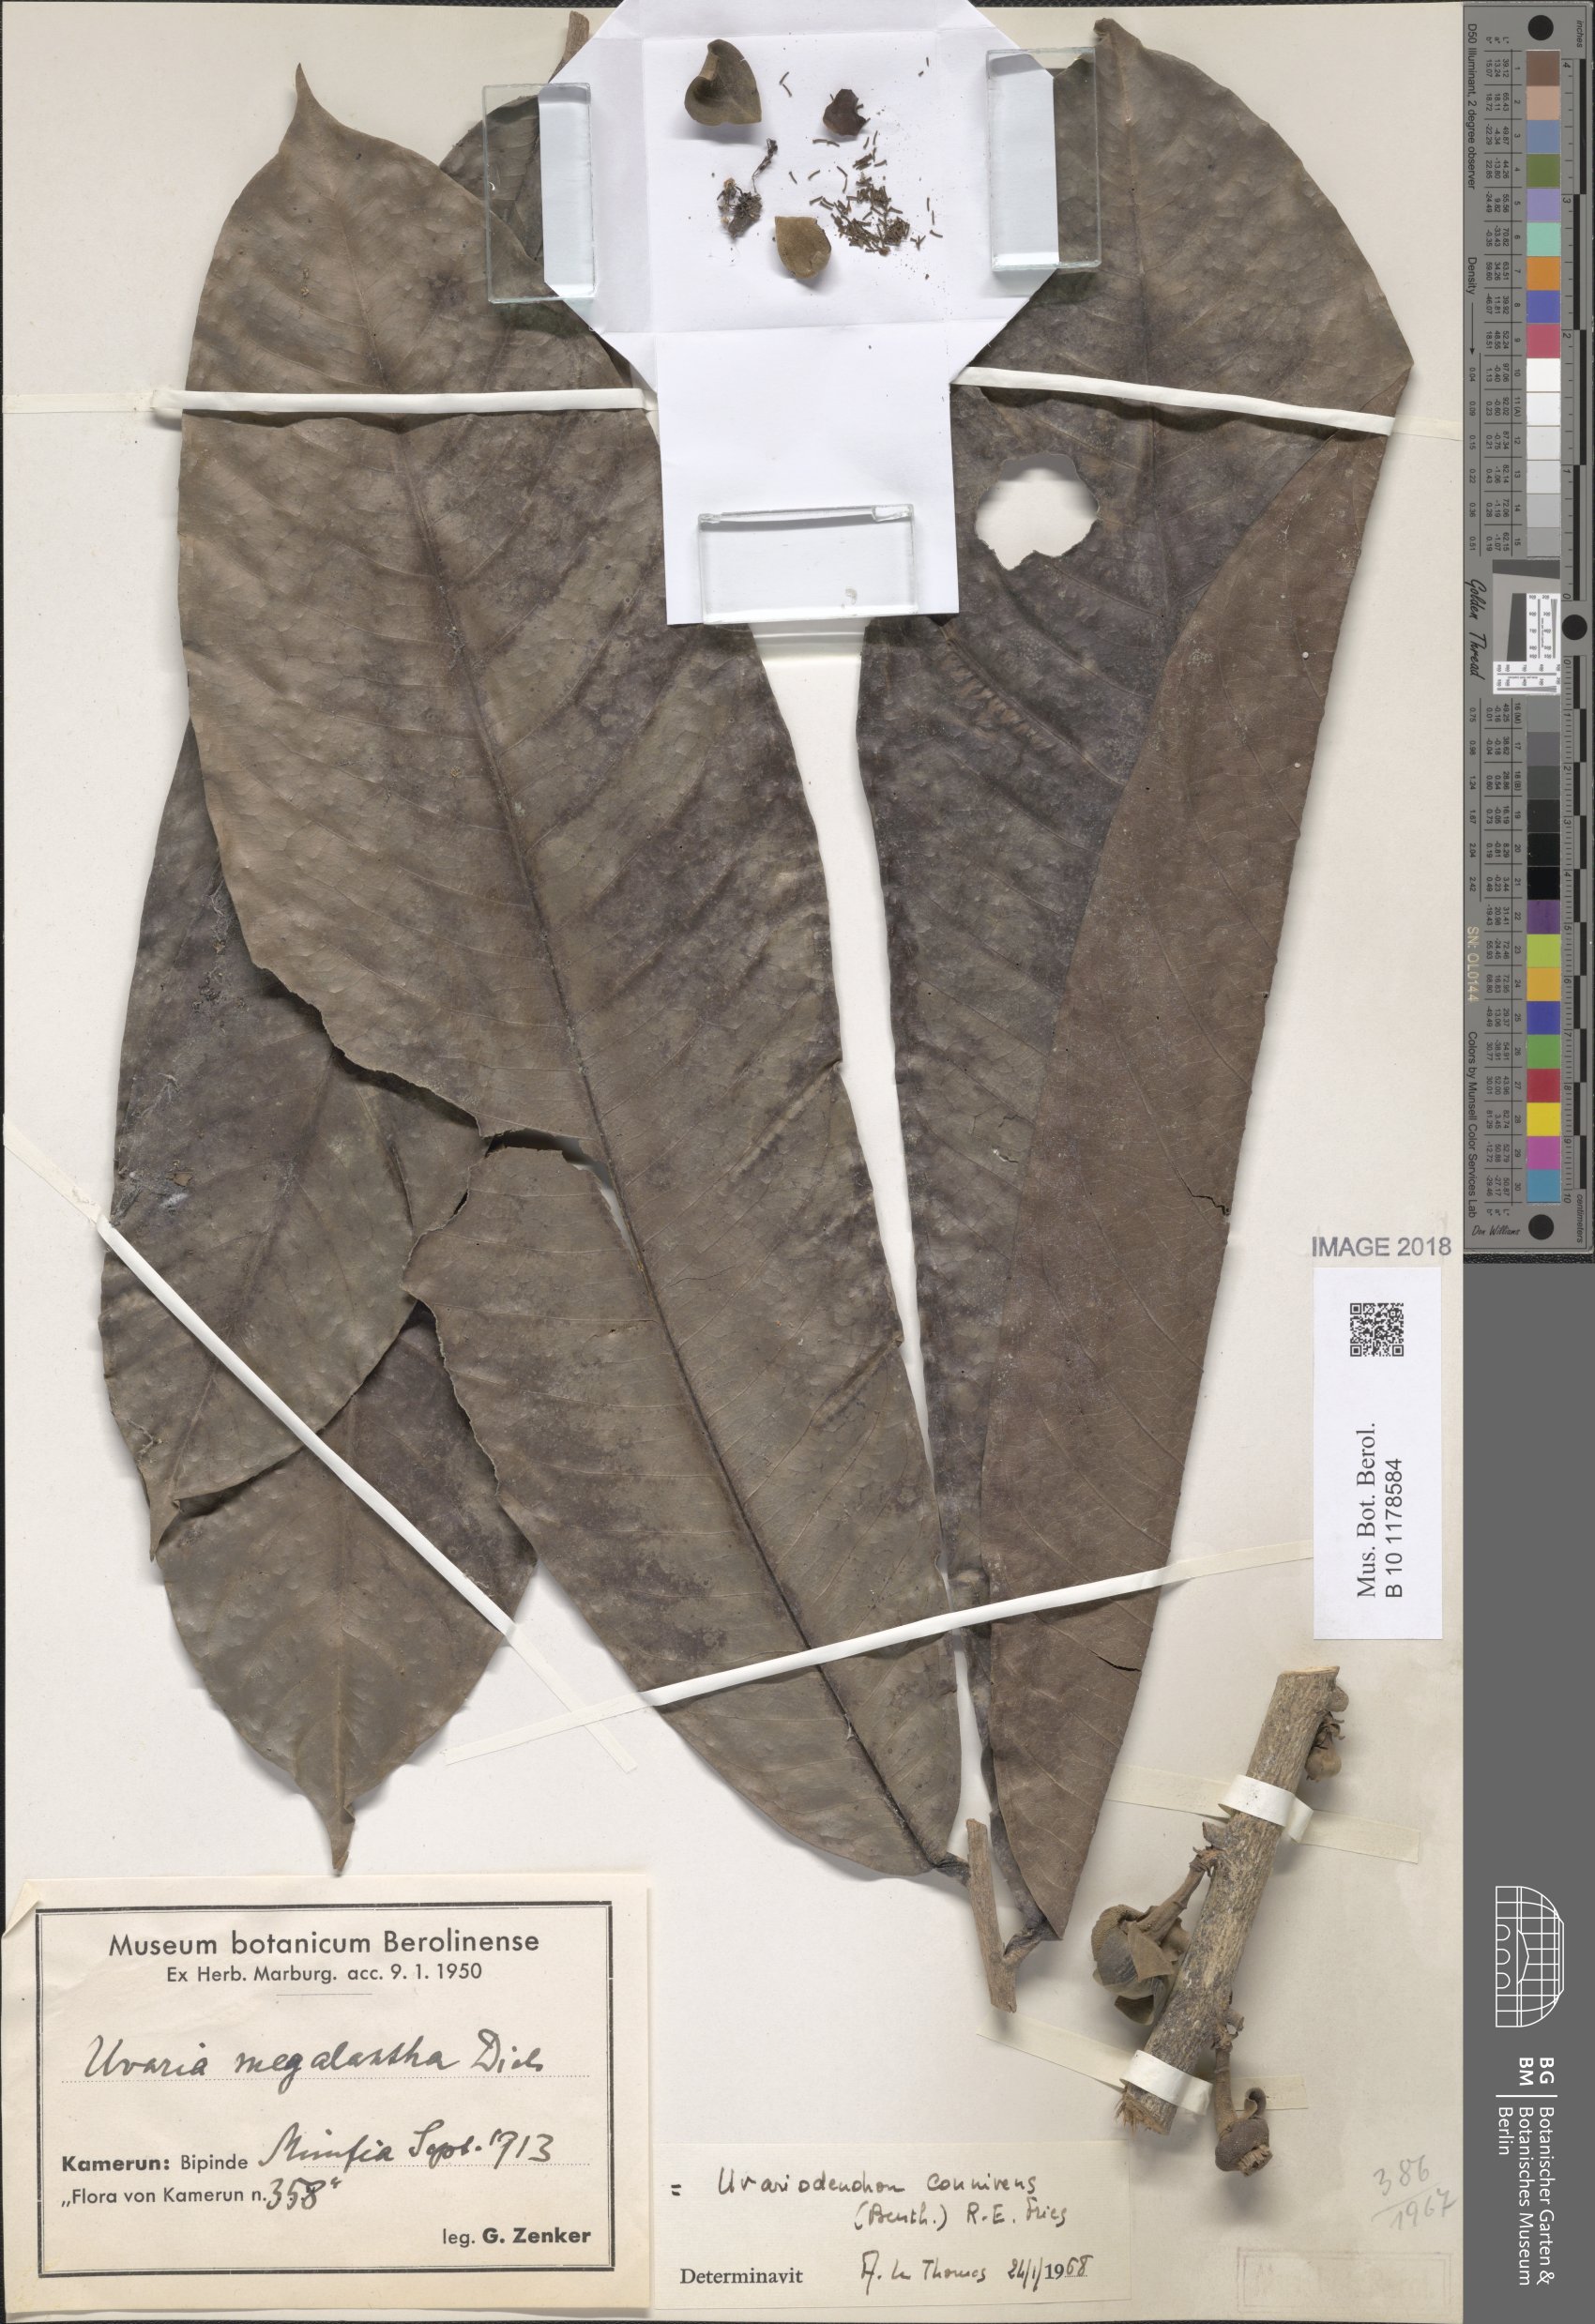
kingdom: Plantae
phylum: Tracheophyta
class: Magnoliopsida
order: Magnoliales
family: Annonaceae
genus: Uvariodendron
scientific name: Uvariodendron connivens
